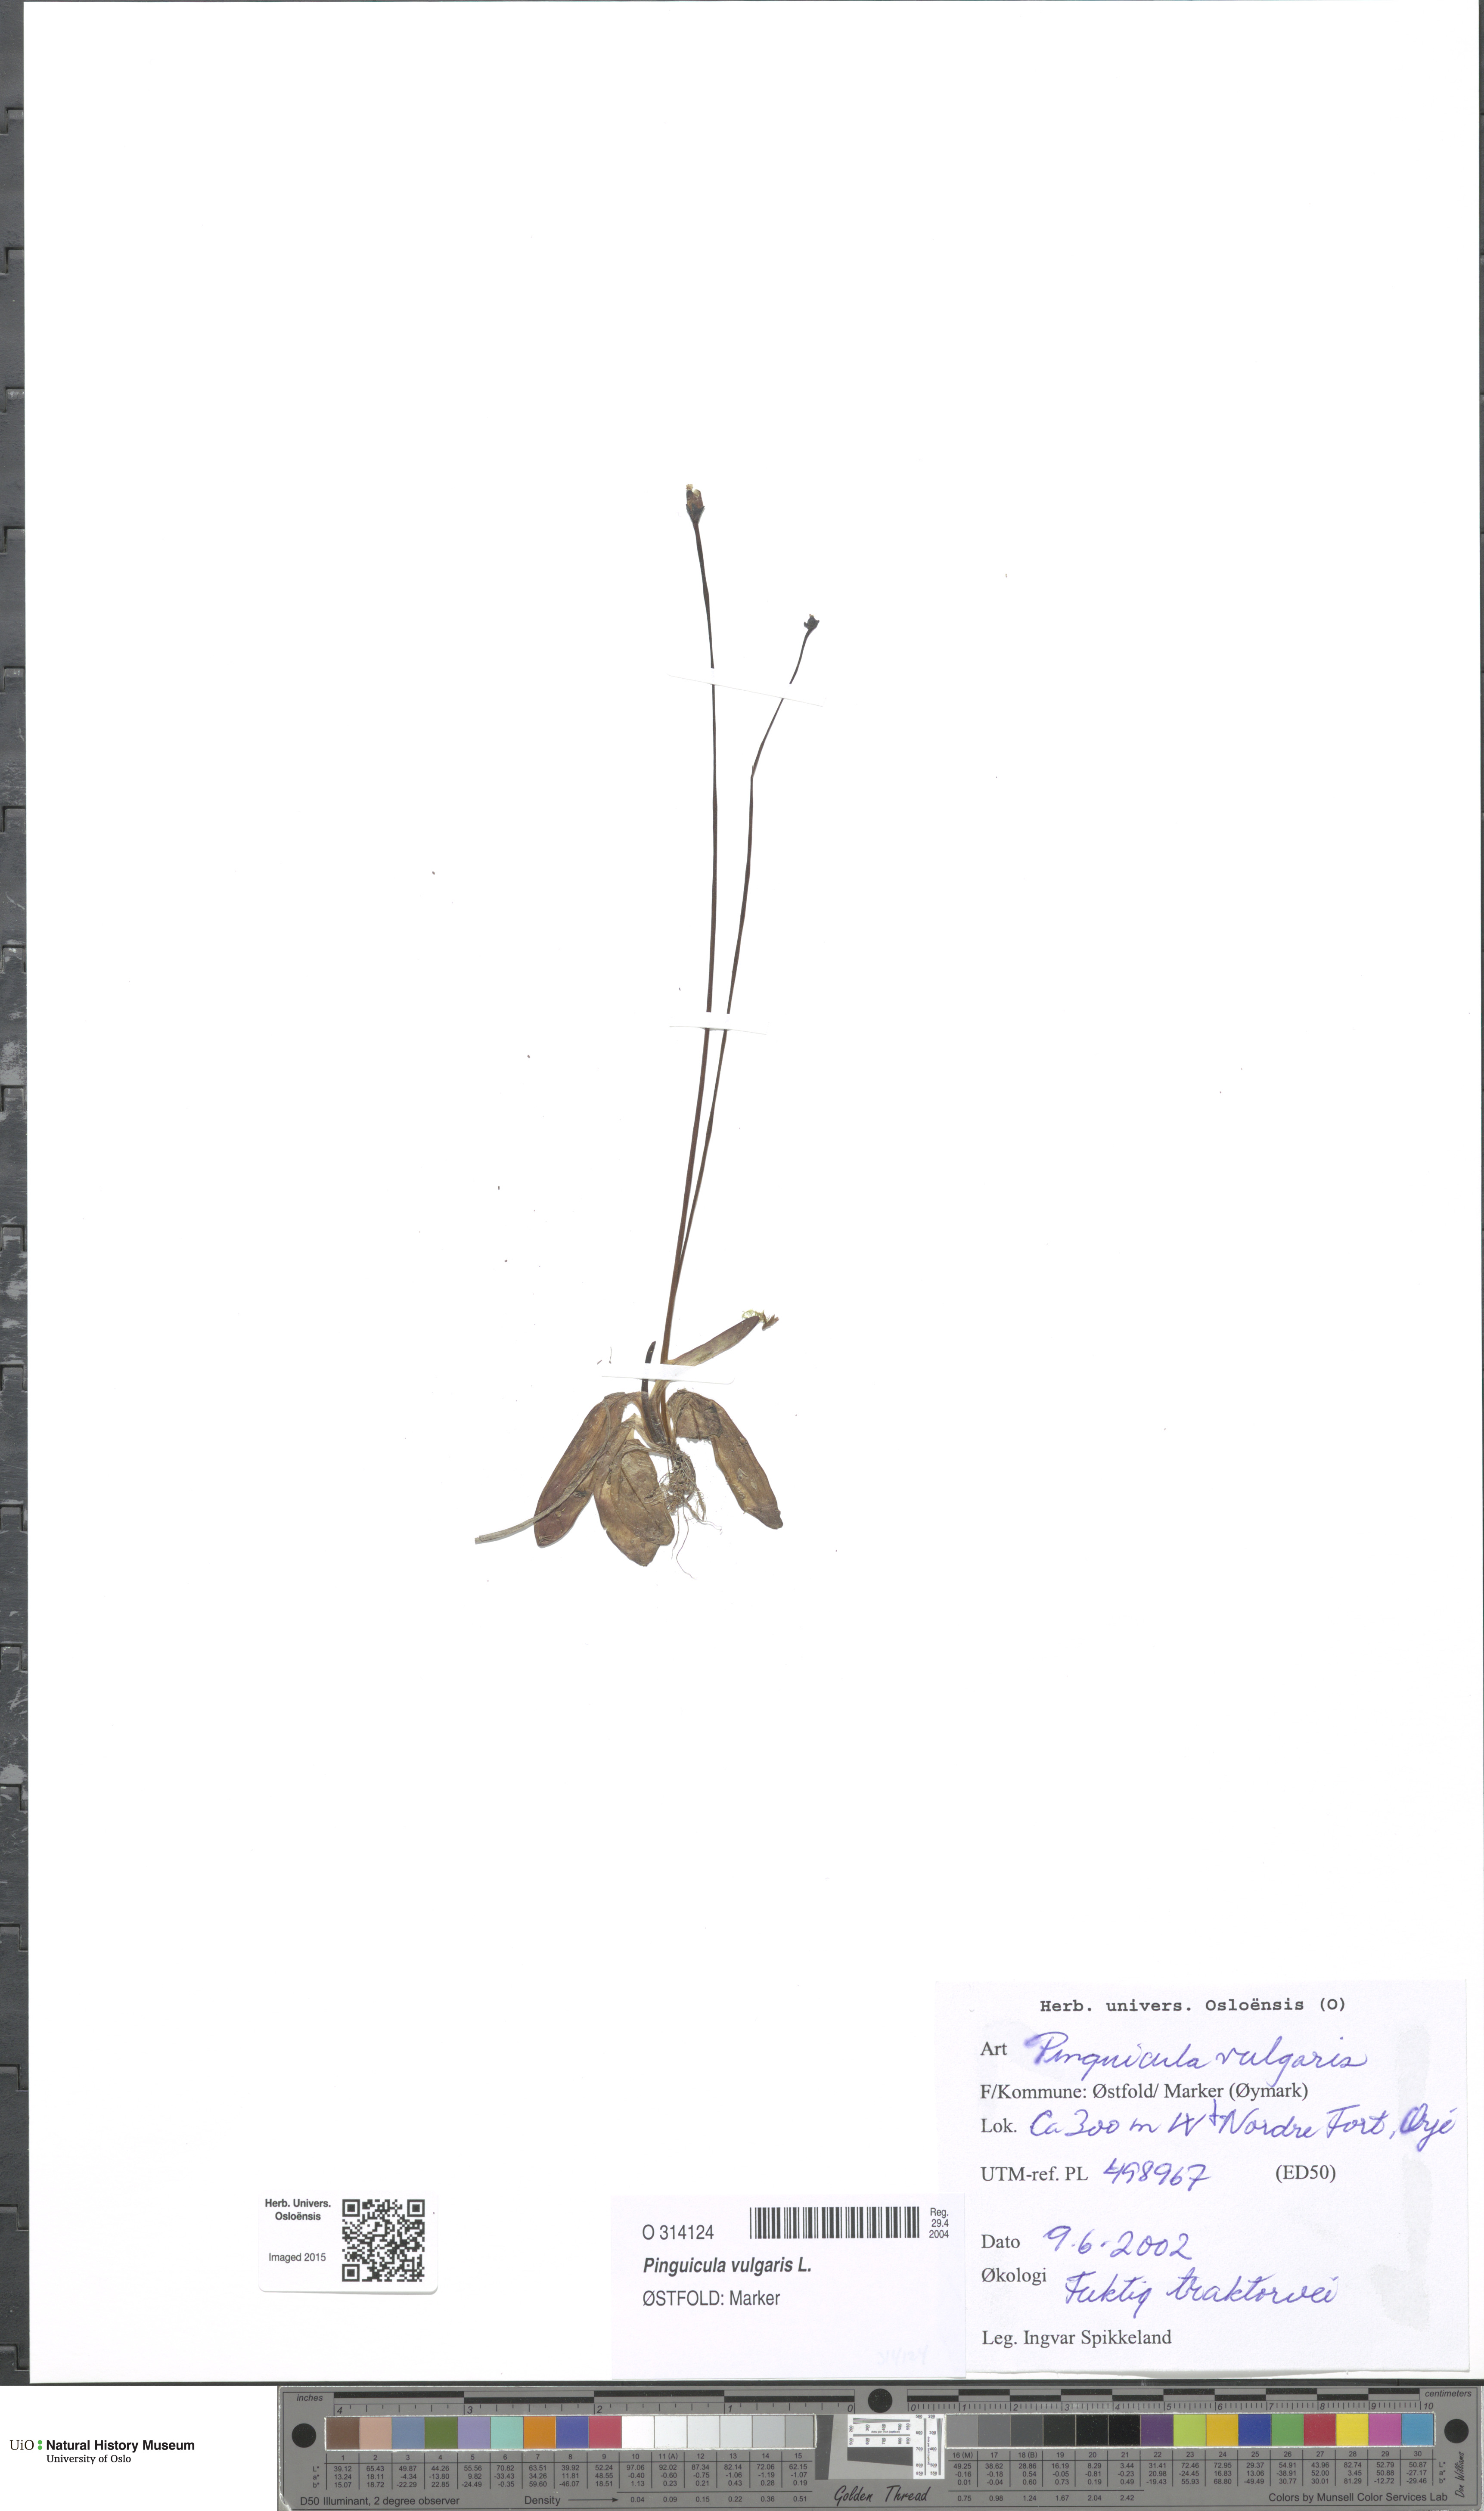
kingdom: Plantae
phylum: Tracheophyta
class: Magnoliopsida
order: Lamiales
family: Lentibulariaceae
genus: Pinguicula
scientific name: Pinguicula vulgaris
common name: Common butterwort
